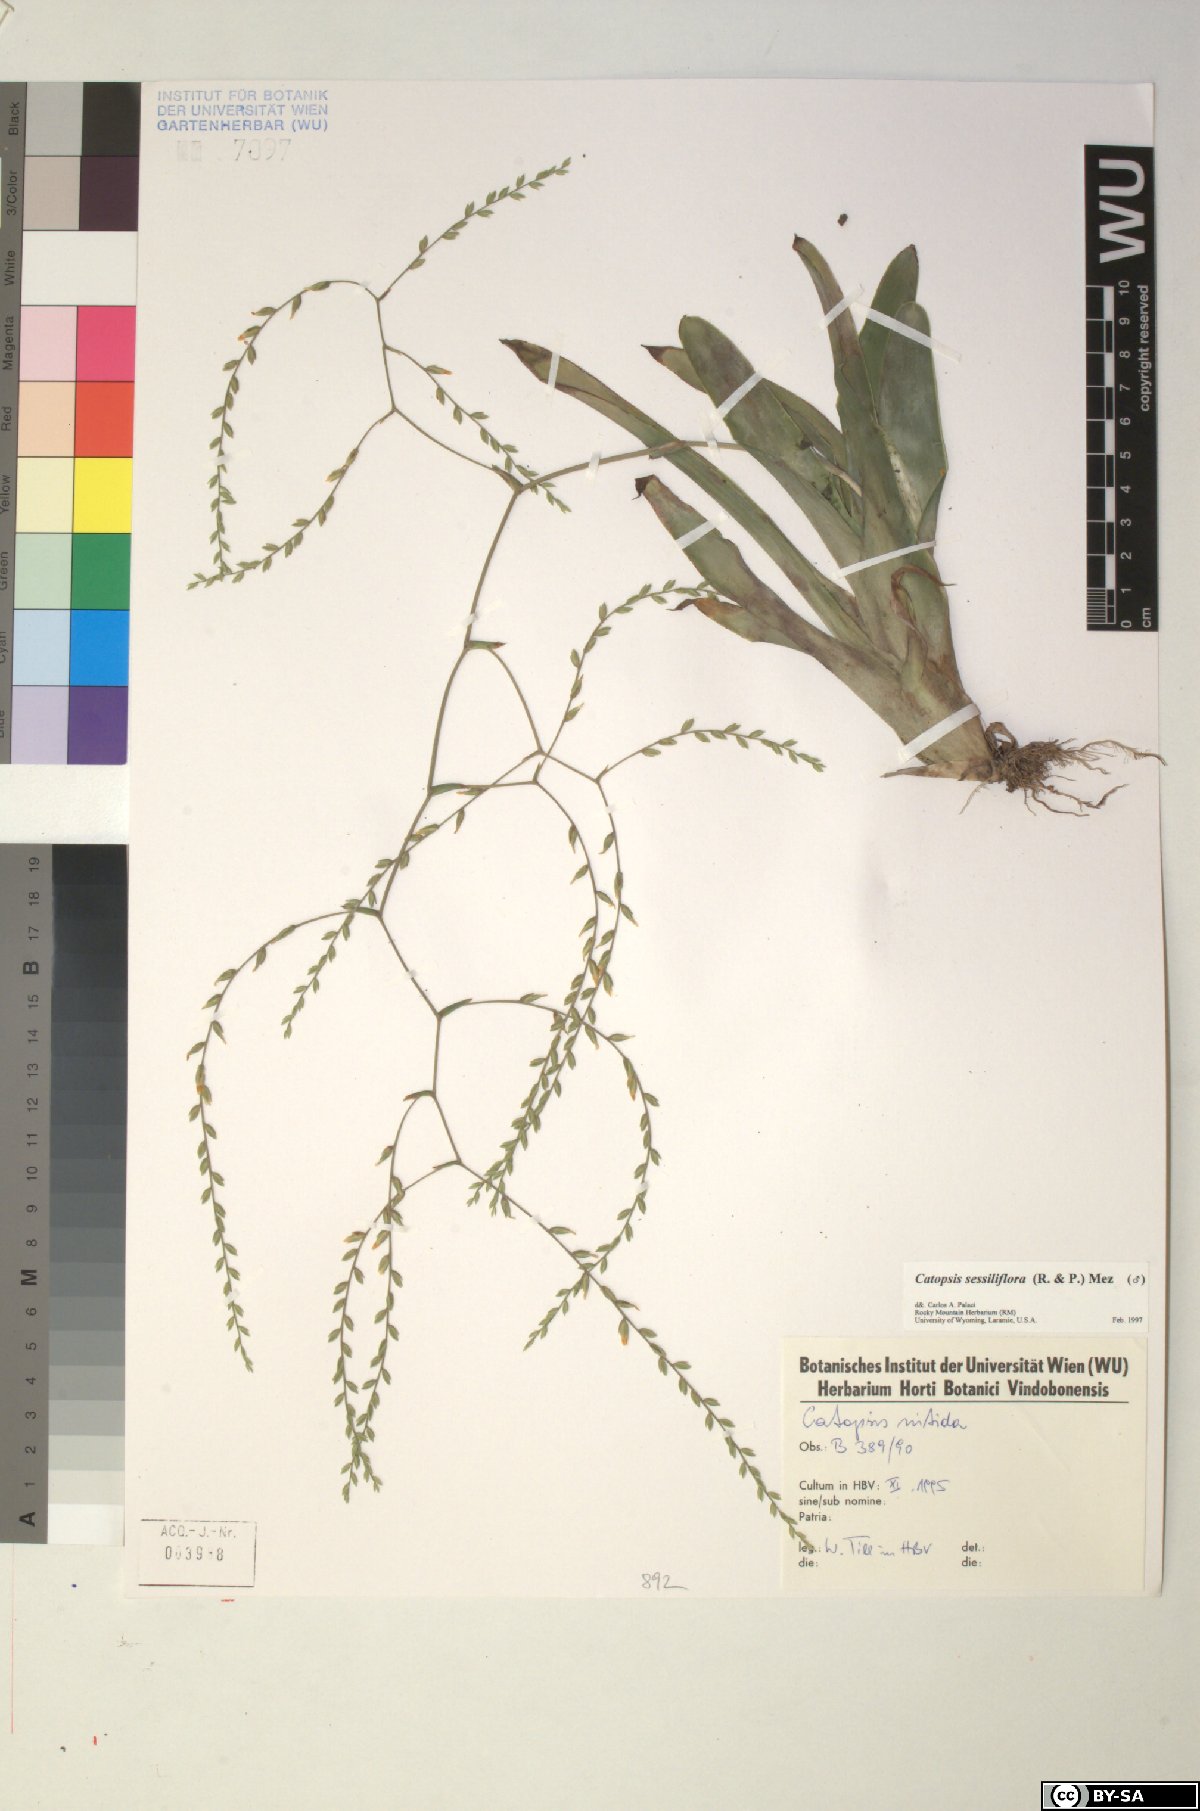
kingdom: Plantae
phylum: Tracheophyta
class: Liliopsida
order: Poales
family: Bromeliaceae
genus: Catopsis
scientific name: Catopsis
